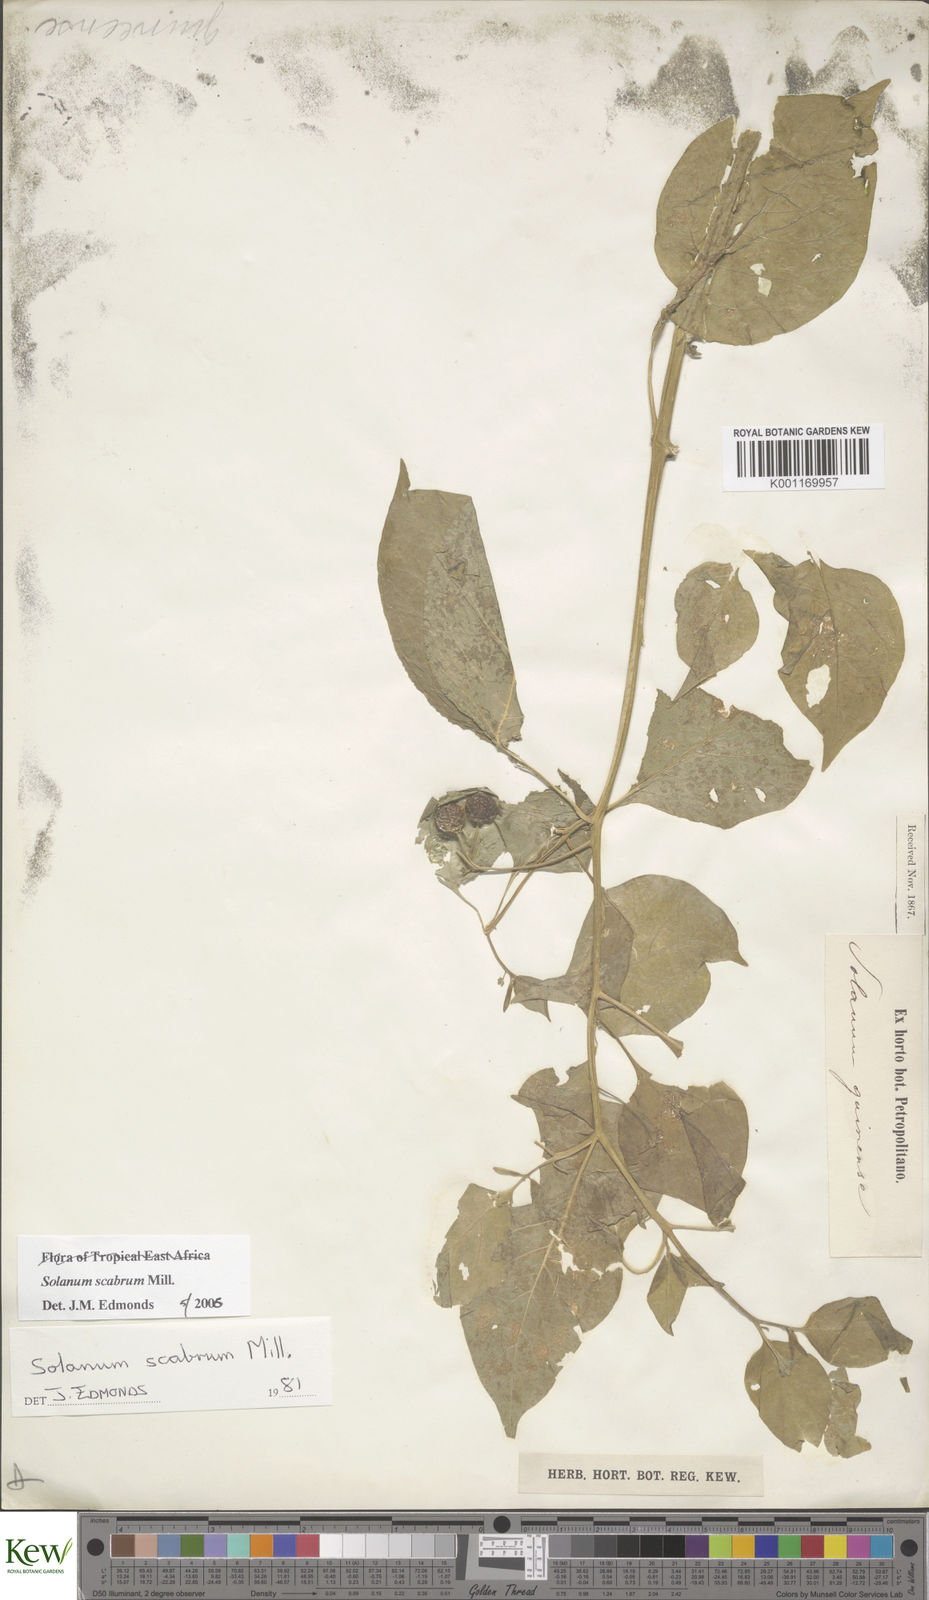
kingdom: Plantae
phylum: Tracheophyta
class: Magnoliopsida
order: Solanales
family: Solanaceae
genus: Solanum
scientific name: Solanum scabrum
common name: Garden-huckleberry
